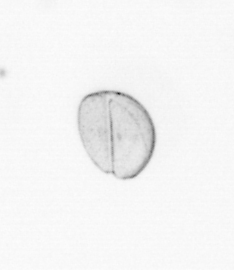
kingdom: Chromista
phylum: Ochrophyta
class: Bacillariophyceae
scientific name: Bacillariophyceae
